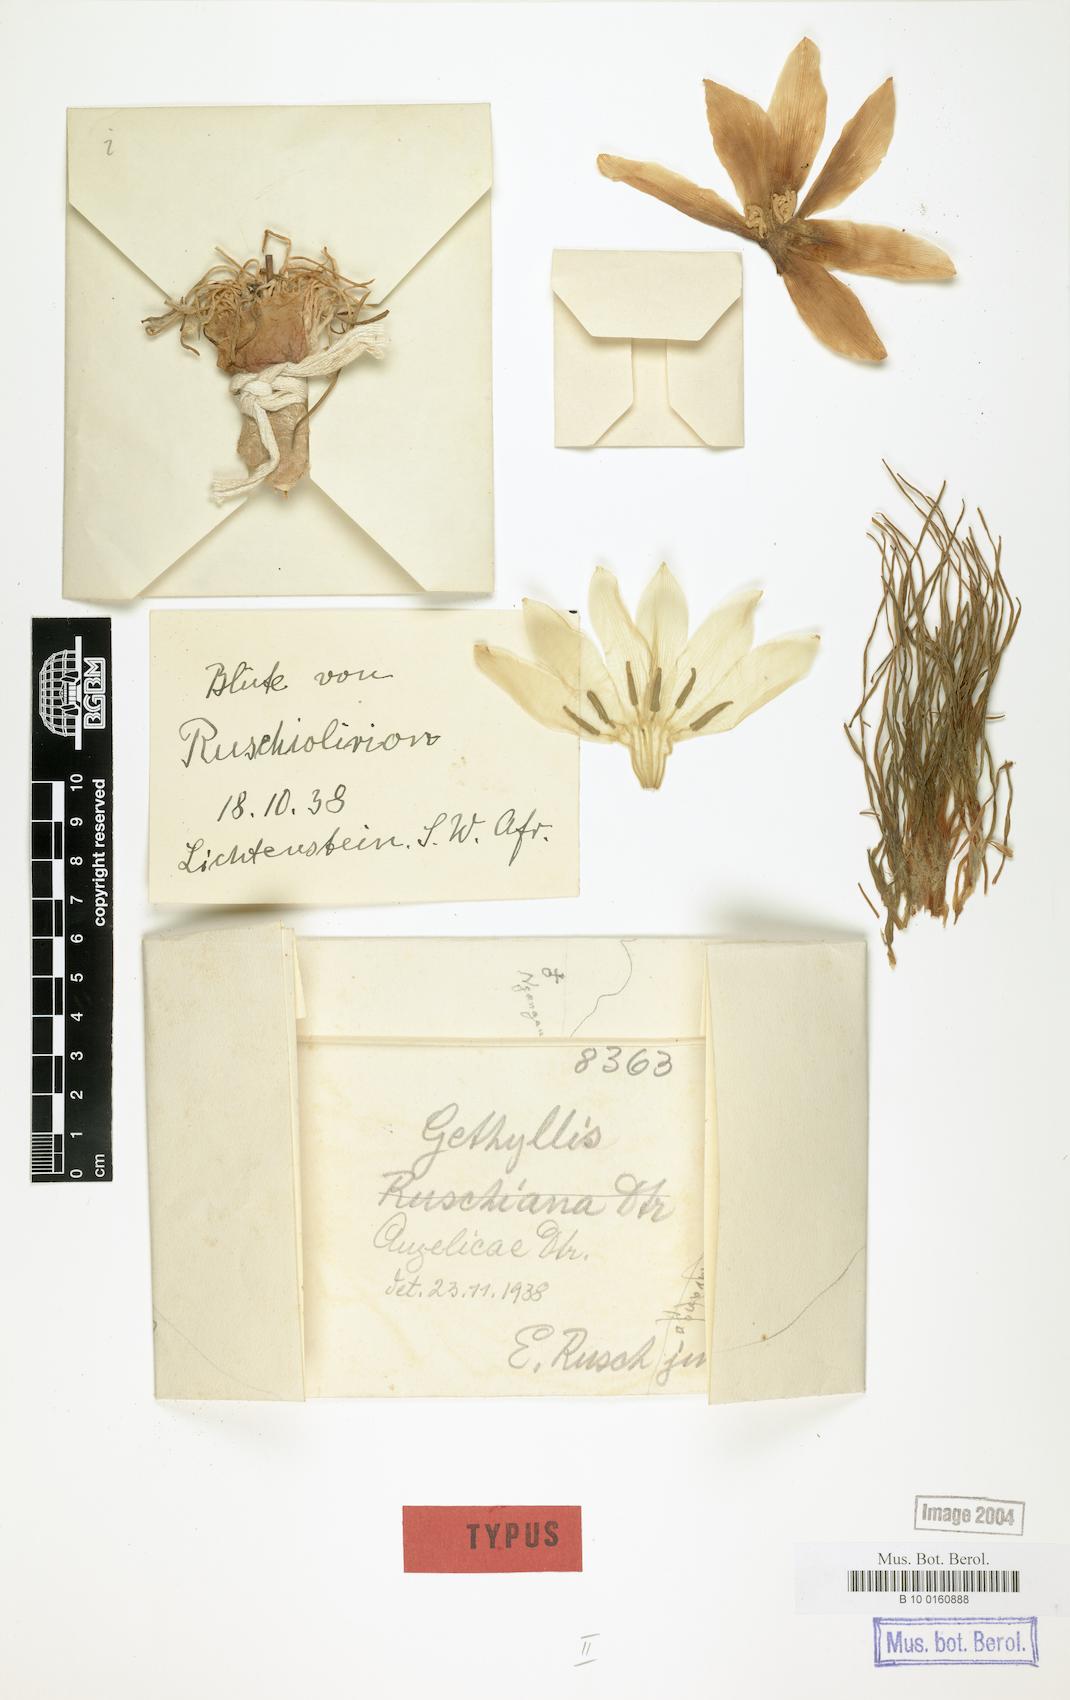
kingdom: Plantae
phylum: Tracheophyta
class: Liliopsida
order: Asparagales
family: Amaryllidaceae
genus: Gethyllis
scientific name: Gethyllis namaquensis
